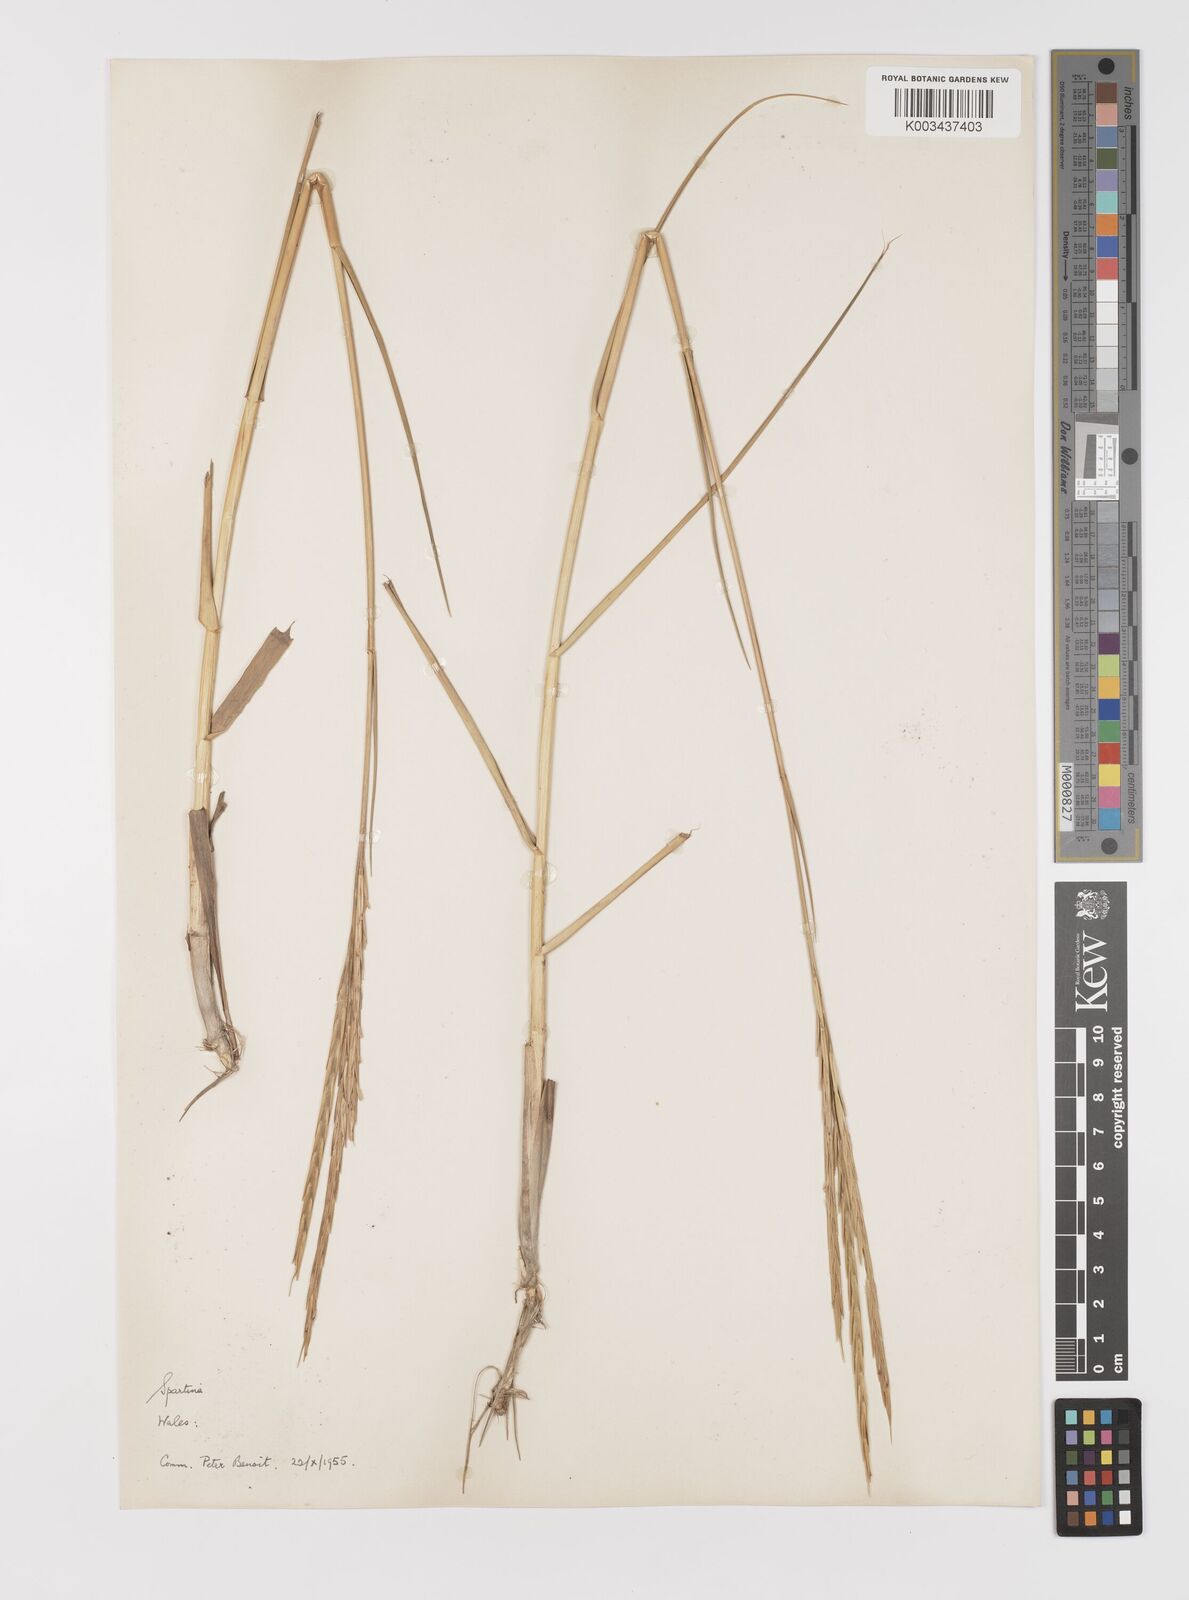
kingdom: Plantae
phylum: Tracheophyta
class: Liliopsida
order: Poales
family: Poaceae
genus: Sporobolus
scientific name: Sporobolus townsendii
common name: Townsend's cordgrass
